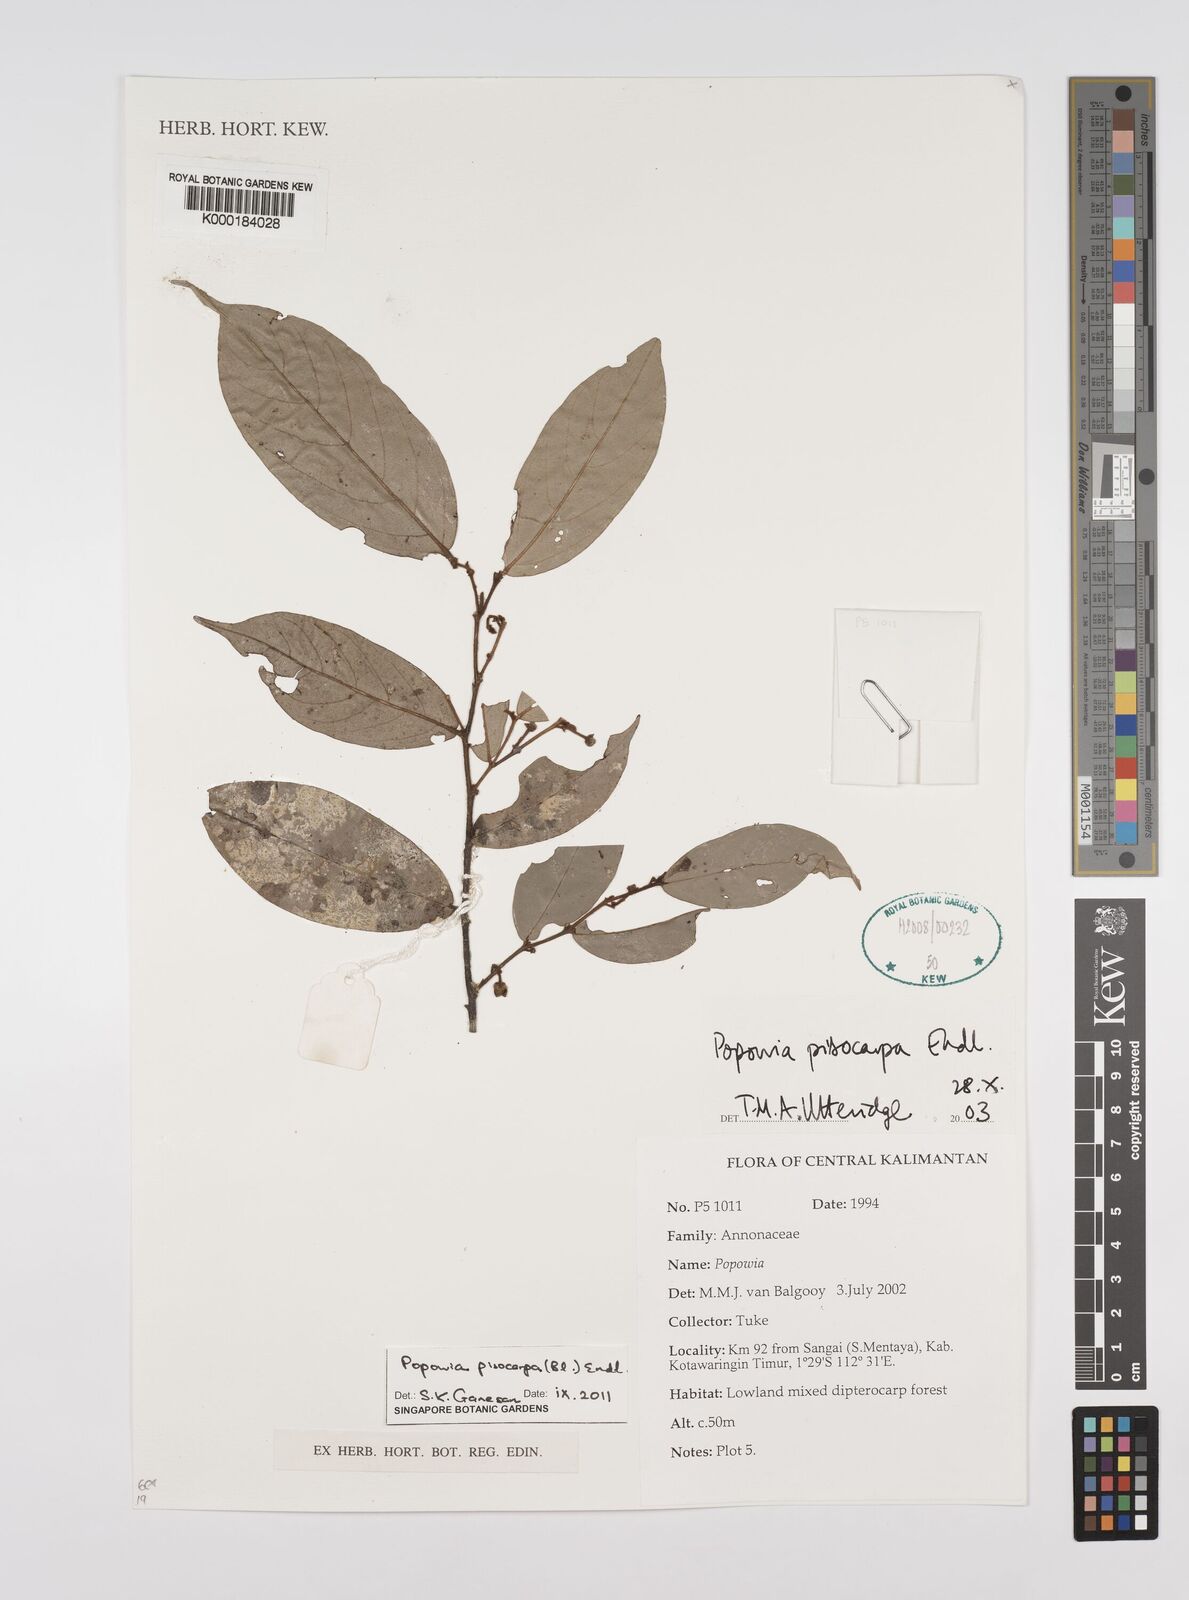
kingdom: Plantae
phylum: Tracheophyta
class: Magnoliopsida
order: Magnoliales
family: Annonaceae
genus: Popowia
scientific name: Popowia
